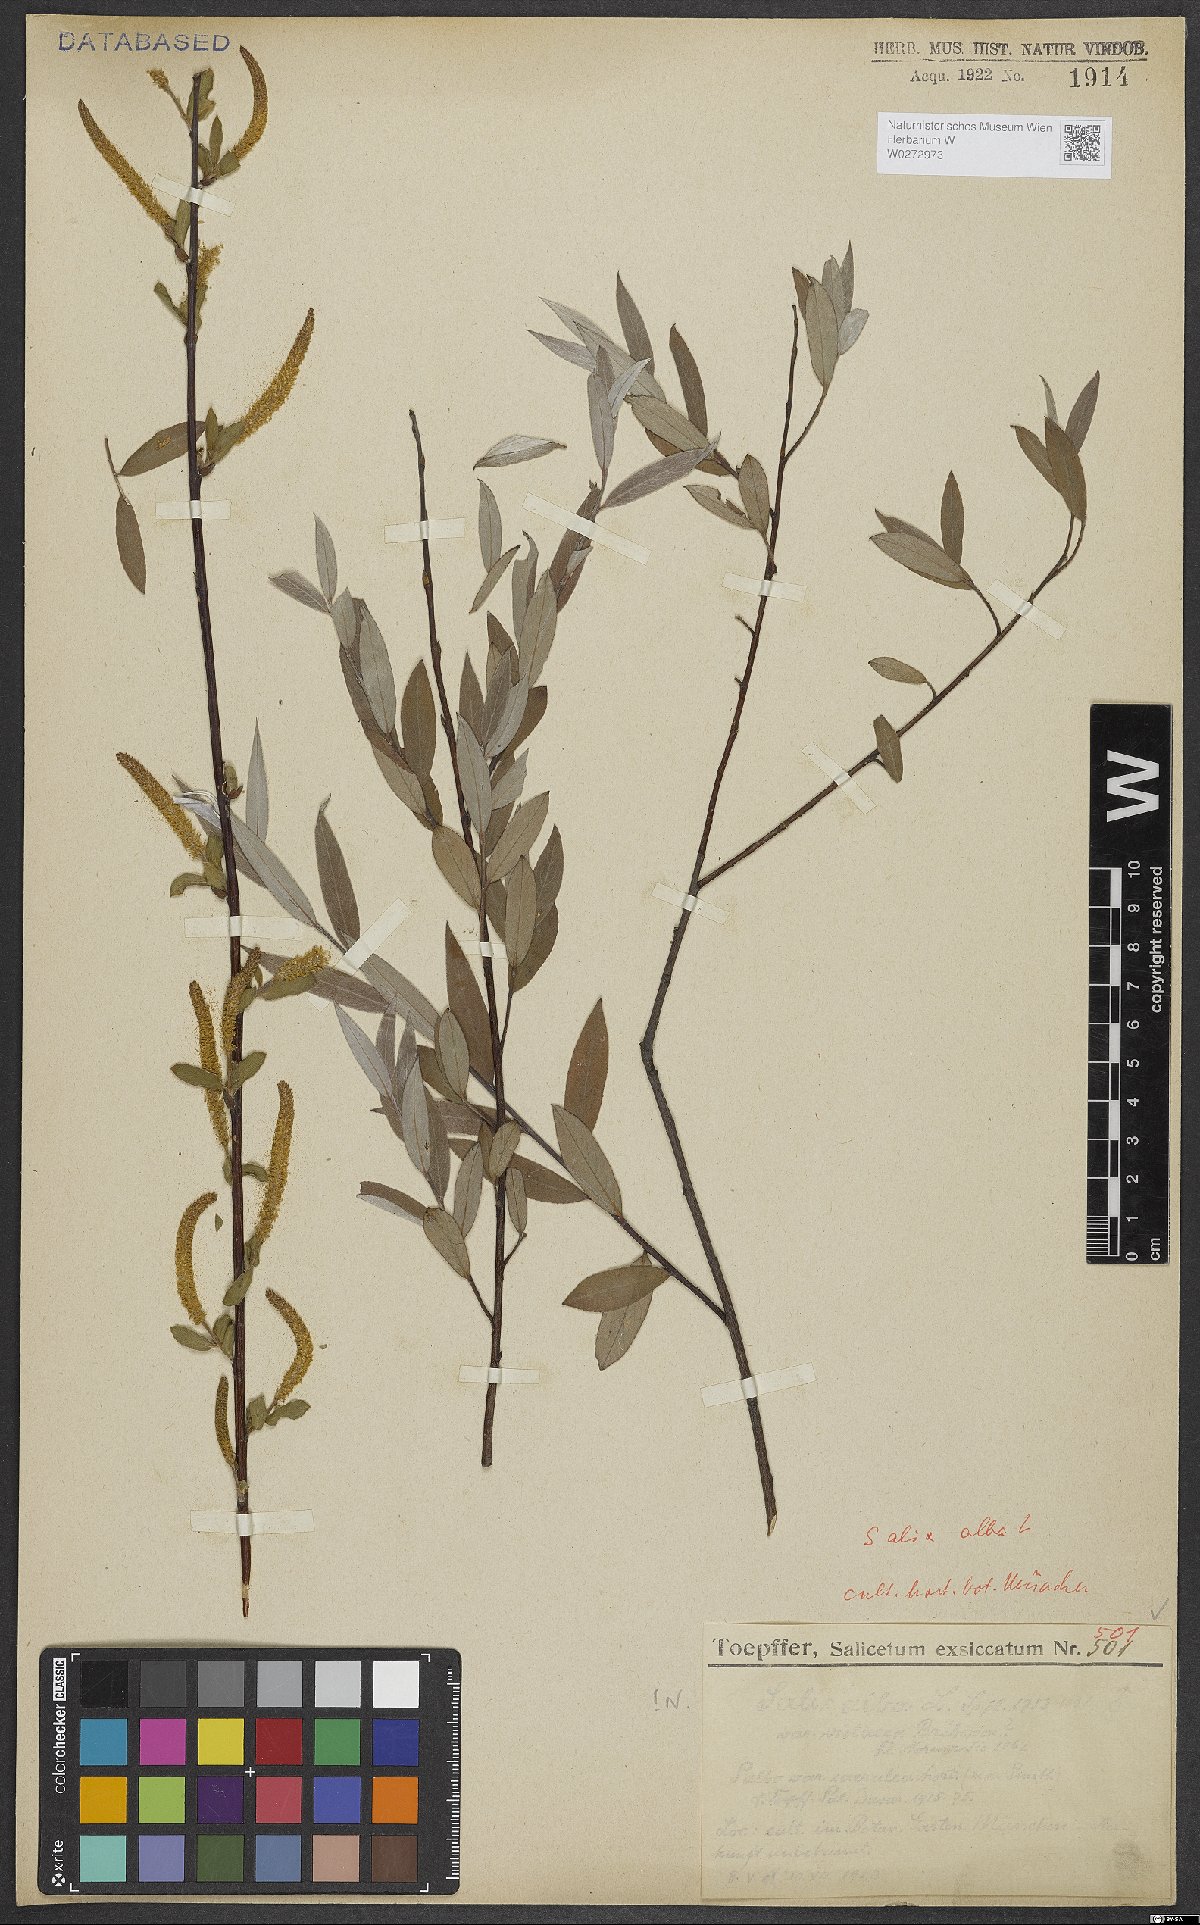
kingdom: Plantae
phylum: Tracheophyta
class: Magnoliopsida
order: Malpighiales
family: Salicaceae
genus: Salix
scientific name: Salix alba
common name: White willow
